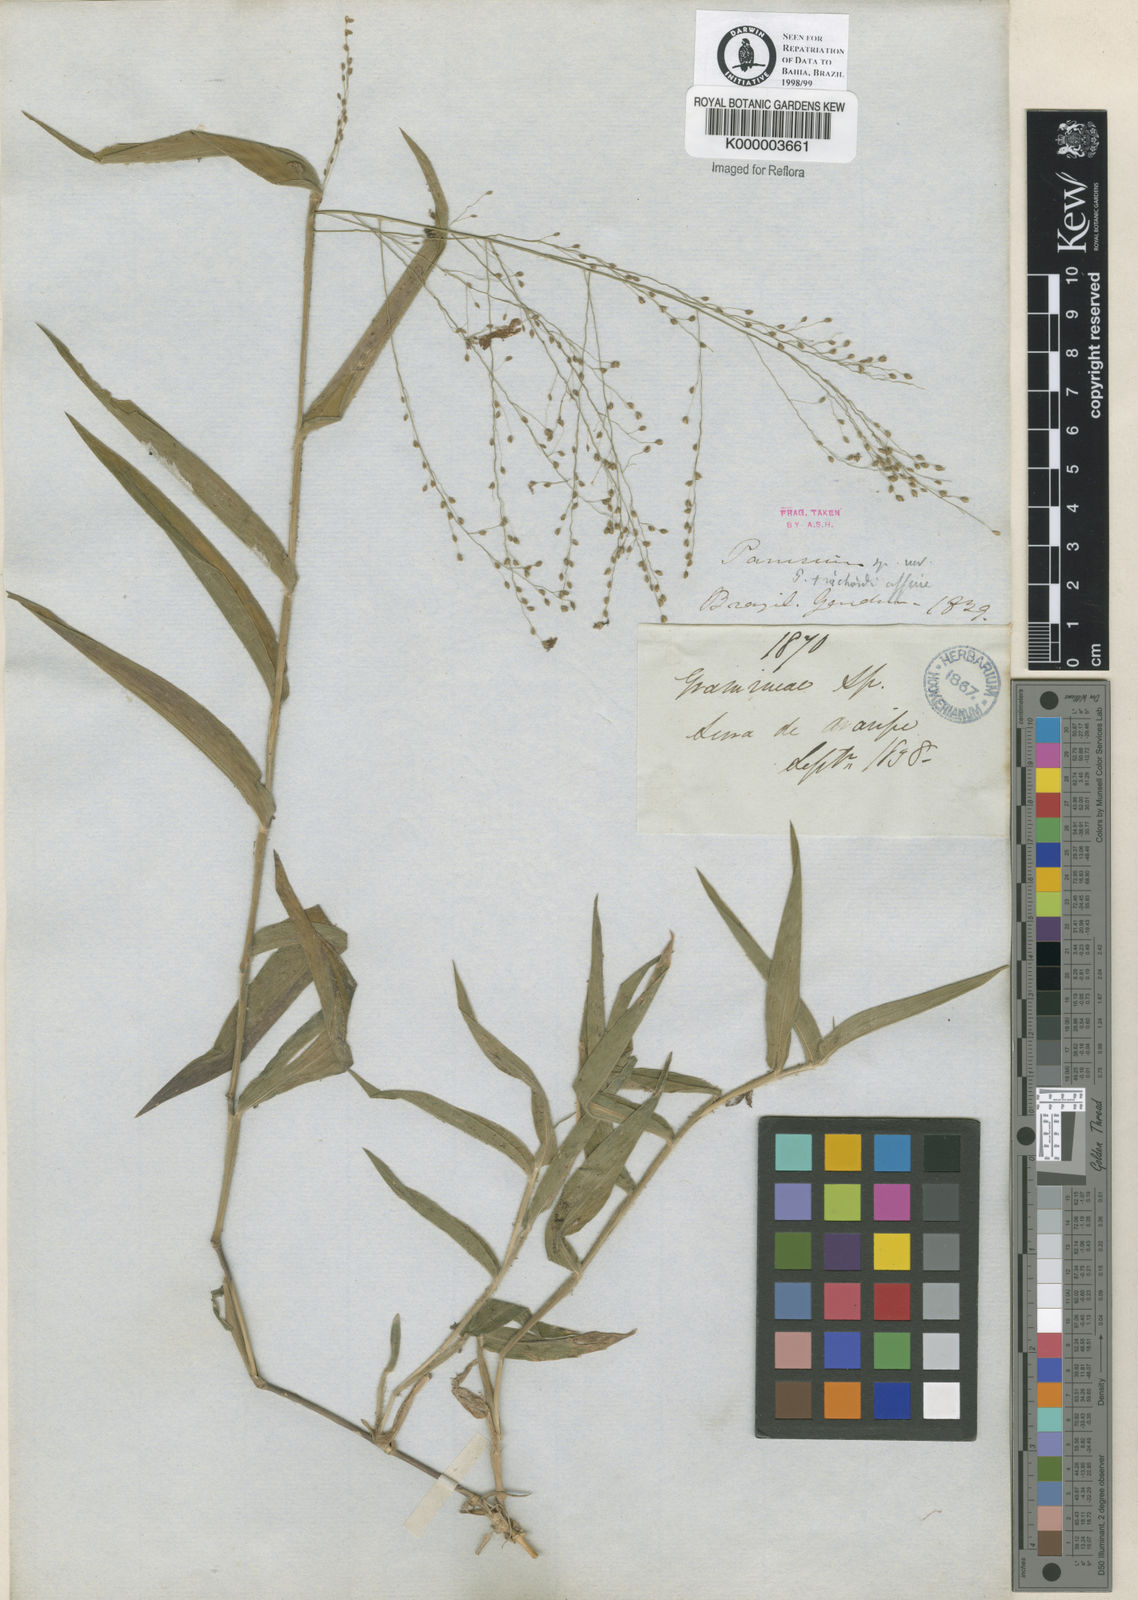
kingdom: Plantae
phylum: Tracheophyta
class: Liliopsida
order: Poales
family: Poaceae
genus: Panicum
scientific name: Panicum millegrana
